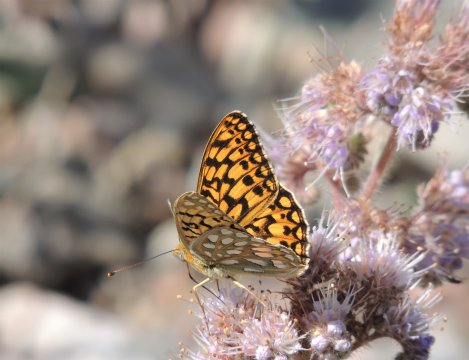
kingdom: Animalia
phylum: Arthropoda
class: Insecta
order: Lepidoptera
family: Nymphalidae
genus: Speyeria
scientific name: Speyeria callippe
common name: Callippe Fritillary
